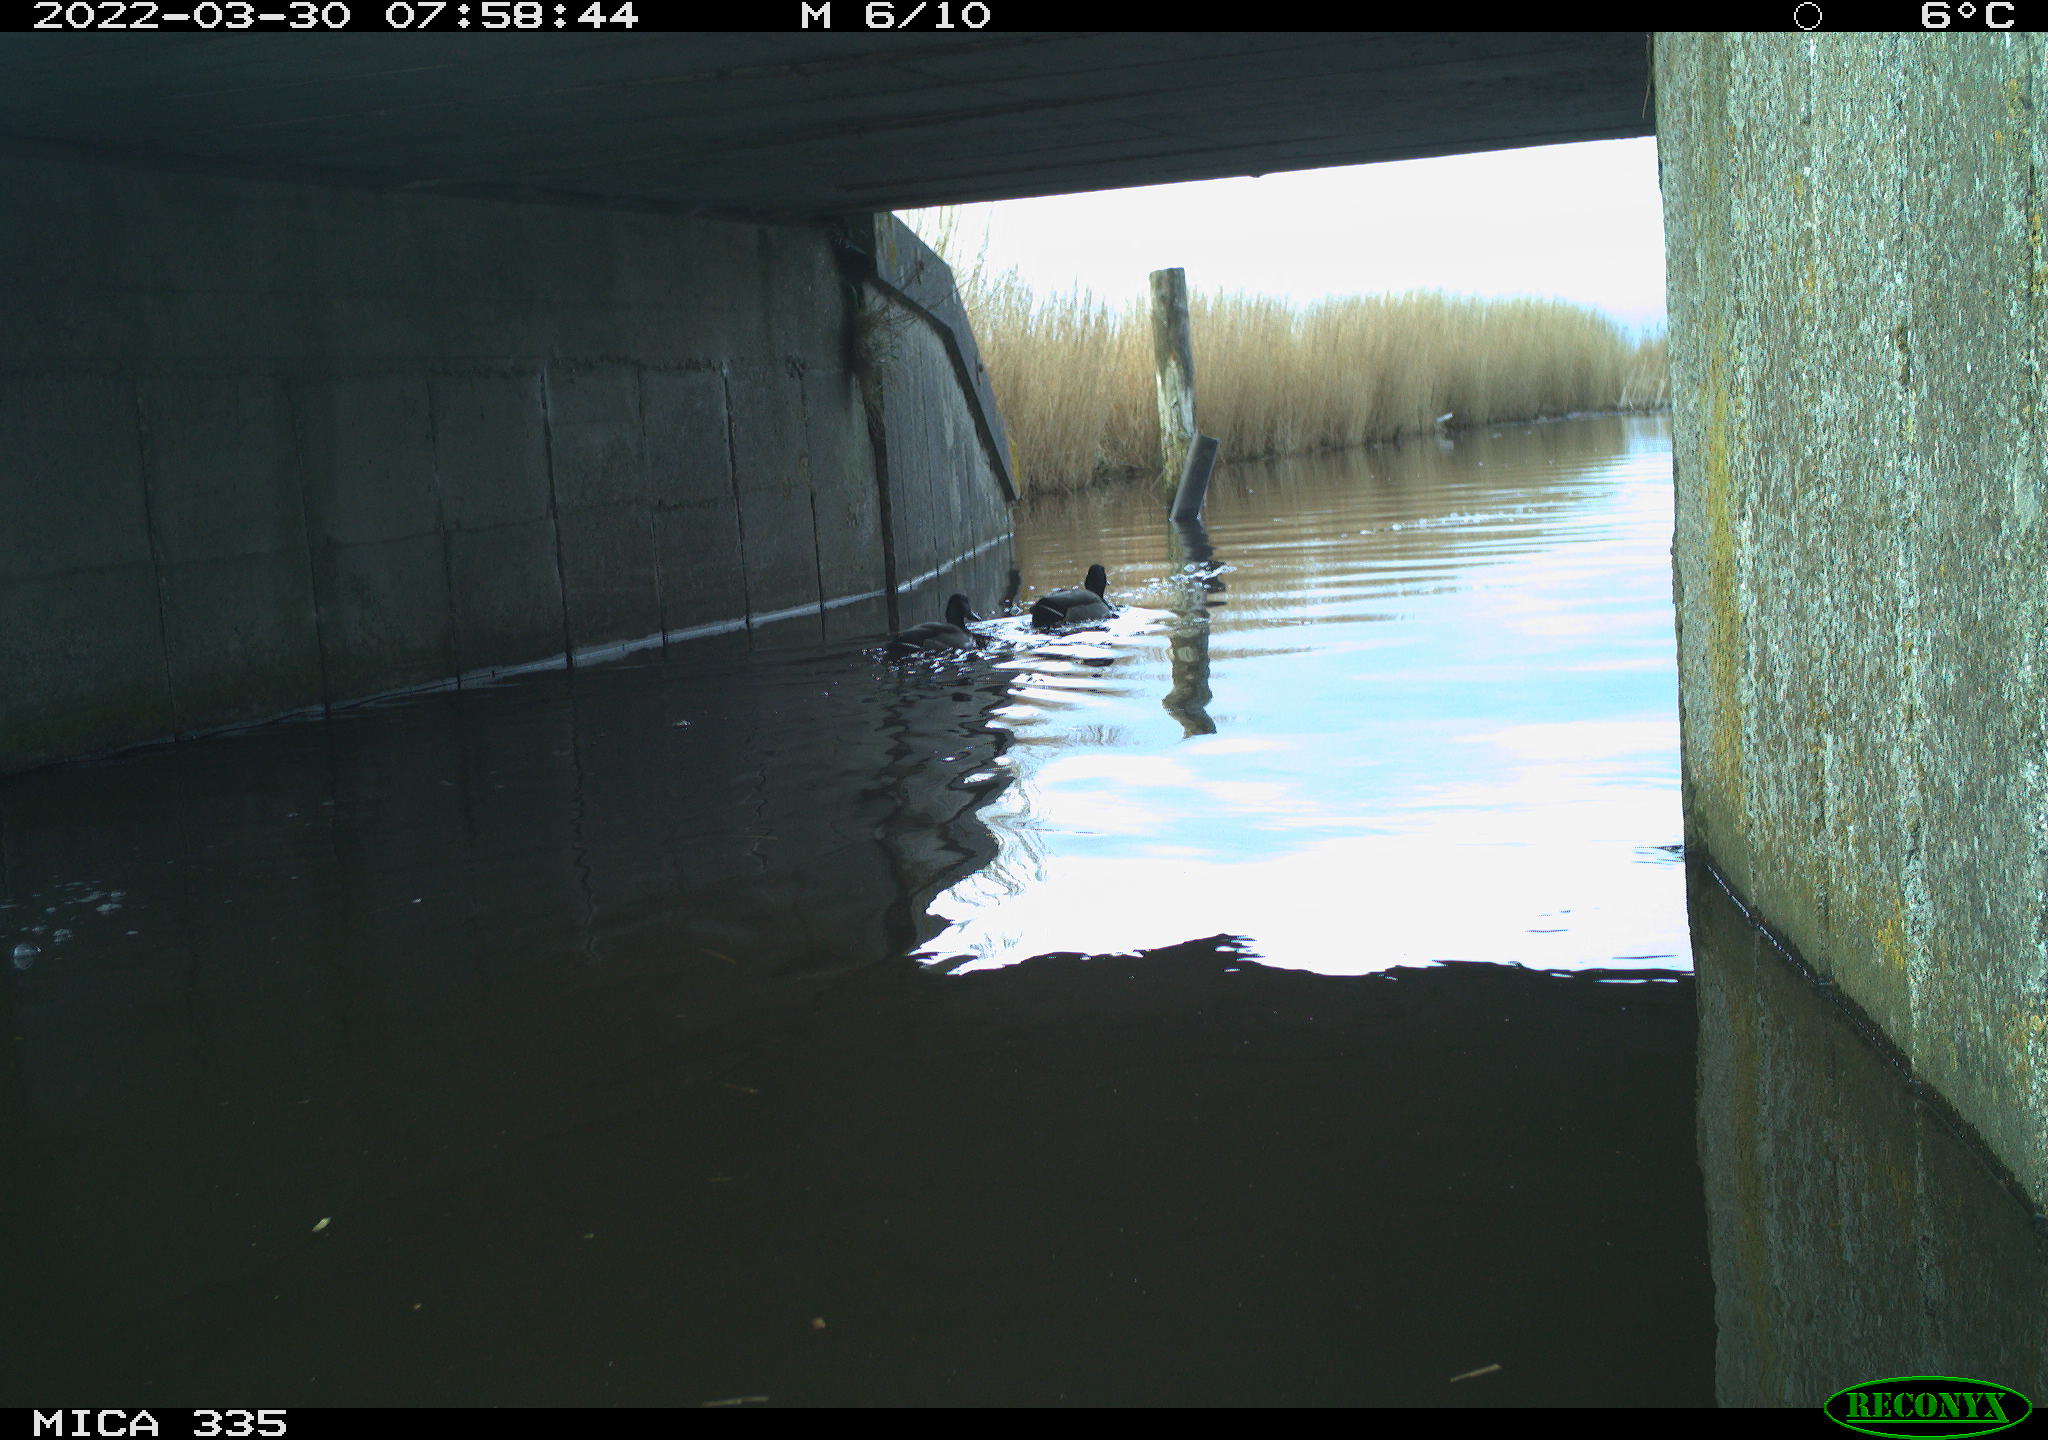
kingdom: Animalia
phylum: Chordata
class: Aves
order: Anseriformes
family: Anatidae
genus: Anas
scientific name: Anas platyrhynchos
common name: Mallard
